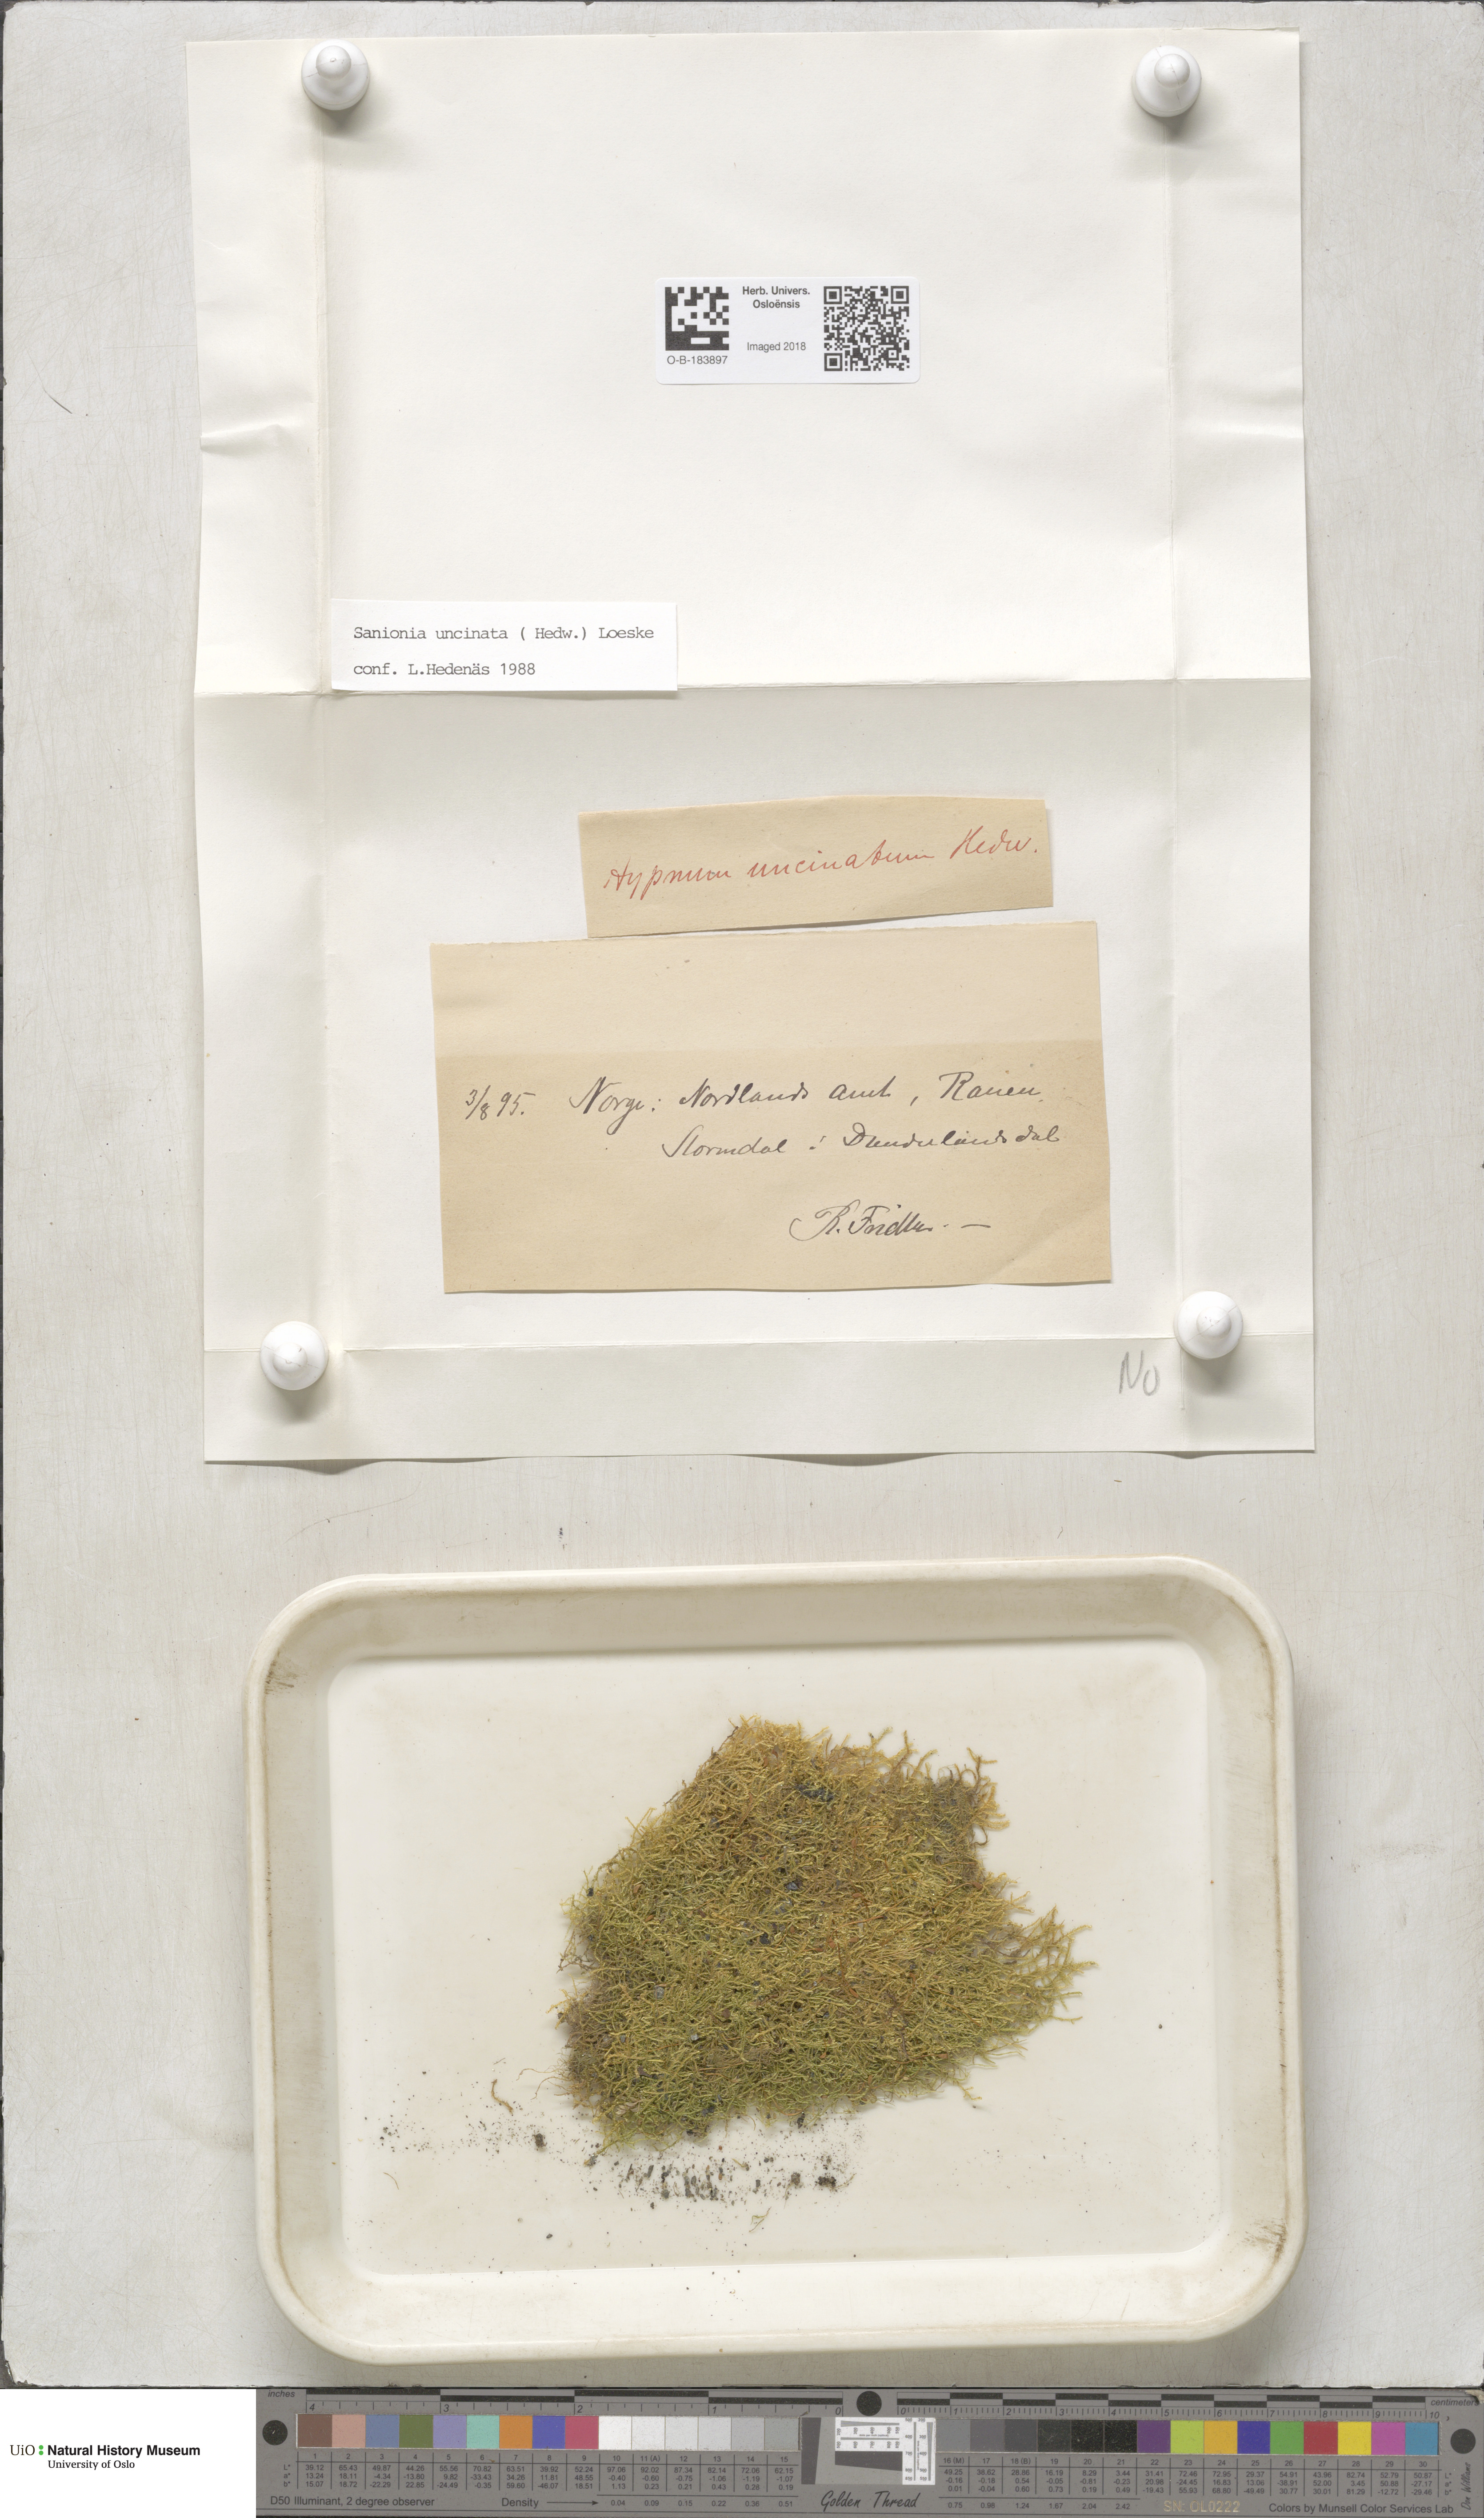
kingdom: Plantae
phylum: Bryophyta
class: Bryopsida
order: Hypnales
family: Scorpidiaceae
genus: Sanionia
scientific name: Sanionia uncinata
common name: Sickle moss
